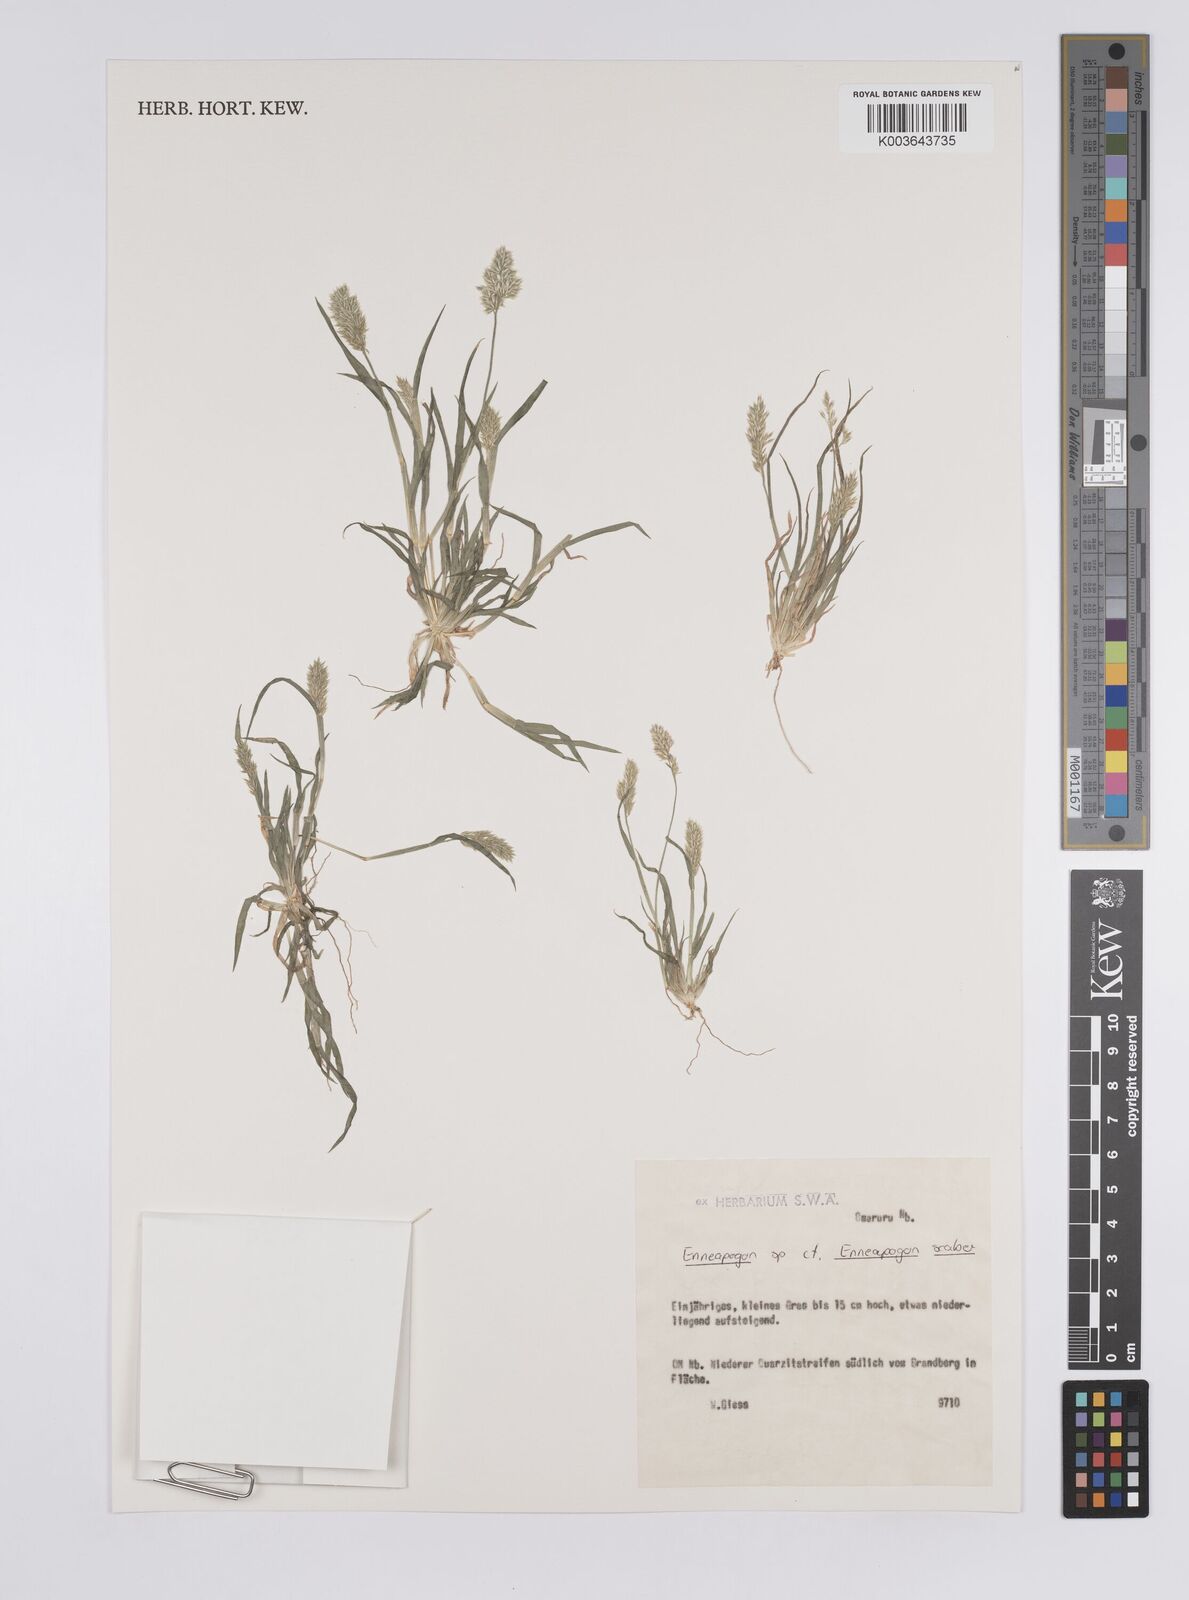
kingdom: Plantae
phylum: Tracheophyta
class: Liliopsida
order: Poales
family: Poaceae
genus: Enneapogon
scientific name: Enneapogon scaber
